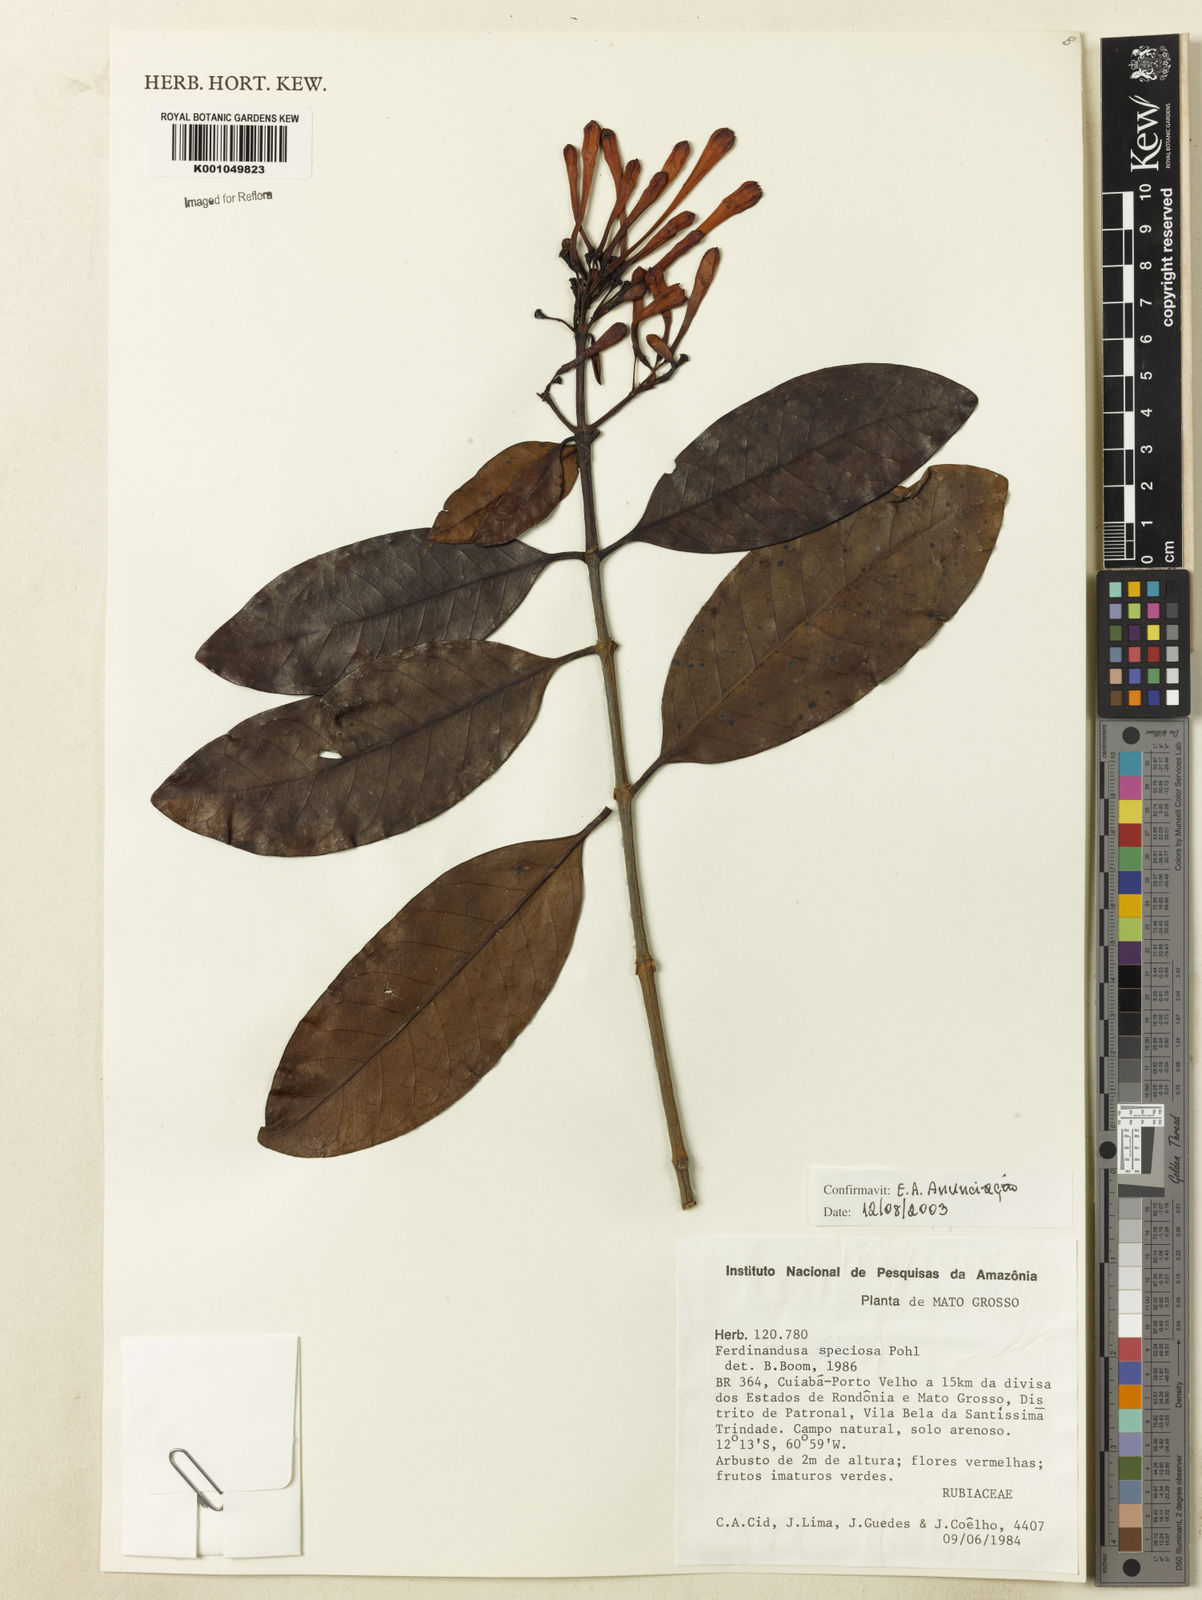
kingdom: Plantae
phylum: Tracheophyta
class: Magnoliopsida
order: Gentianales
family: Rubiaceae
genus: Ferdinandusa
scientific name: Ferdinandusa speciosa
